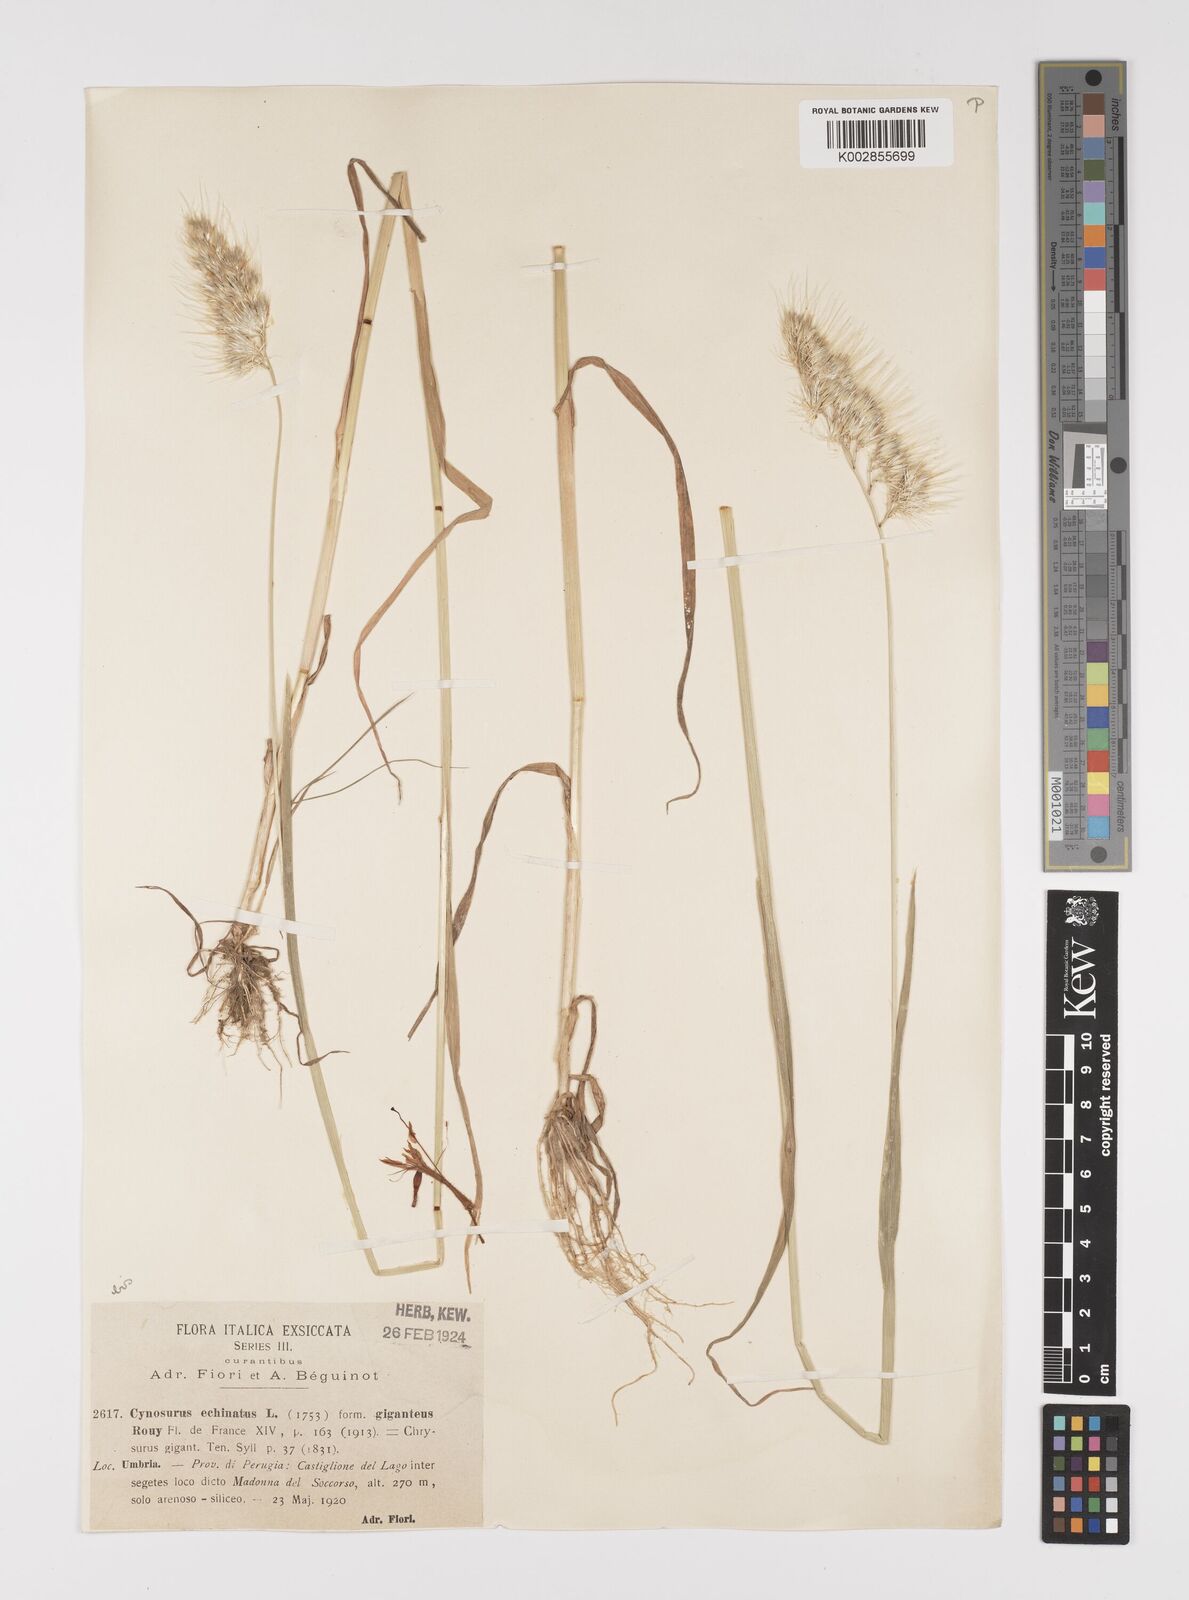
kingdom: Plantae
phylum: Tracheophyta
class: Liliopsida
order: Poales
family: Poaceae
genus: Cynosurus
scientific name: Cynosurus echinatus
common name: Rough dog's-tail
